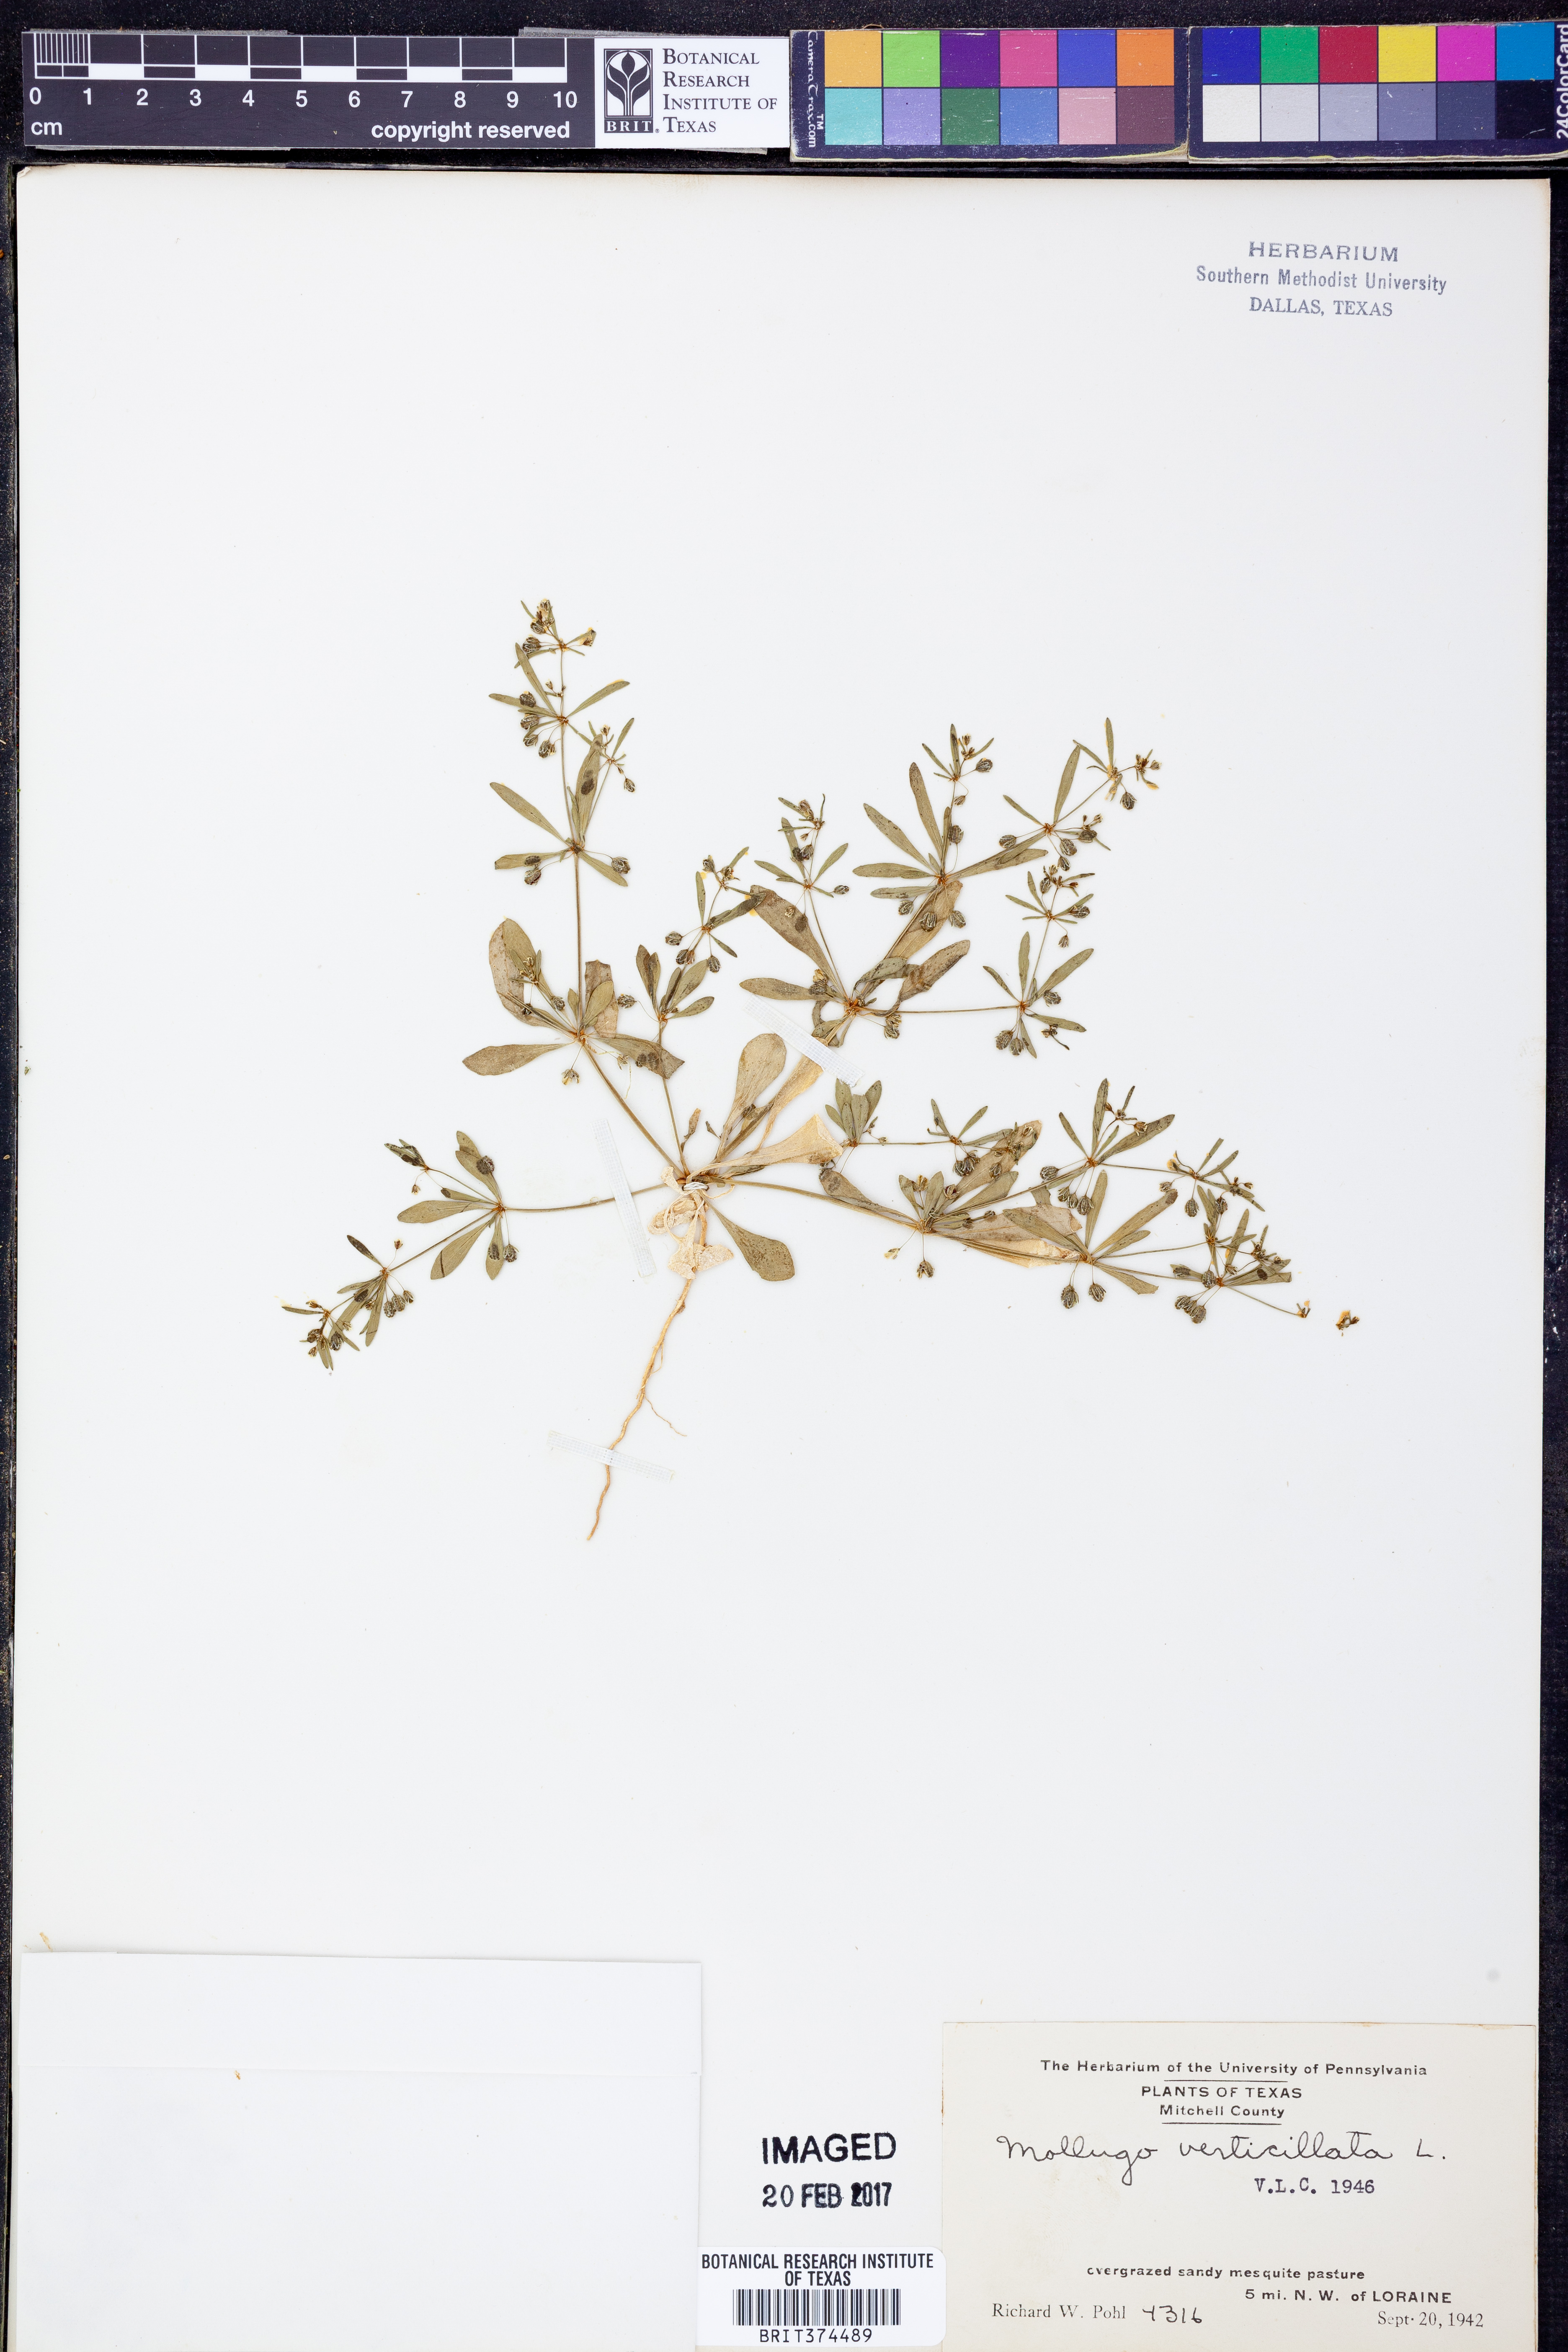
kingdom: Plantae
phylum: Tracheophyta
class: Magnoliopsida
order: Caryophyllales
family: Molluginaceae
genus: Mollugo
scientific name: Mollugo verticillata
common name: Green carpetweed
